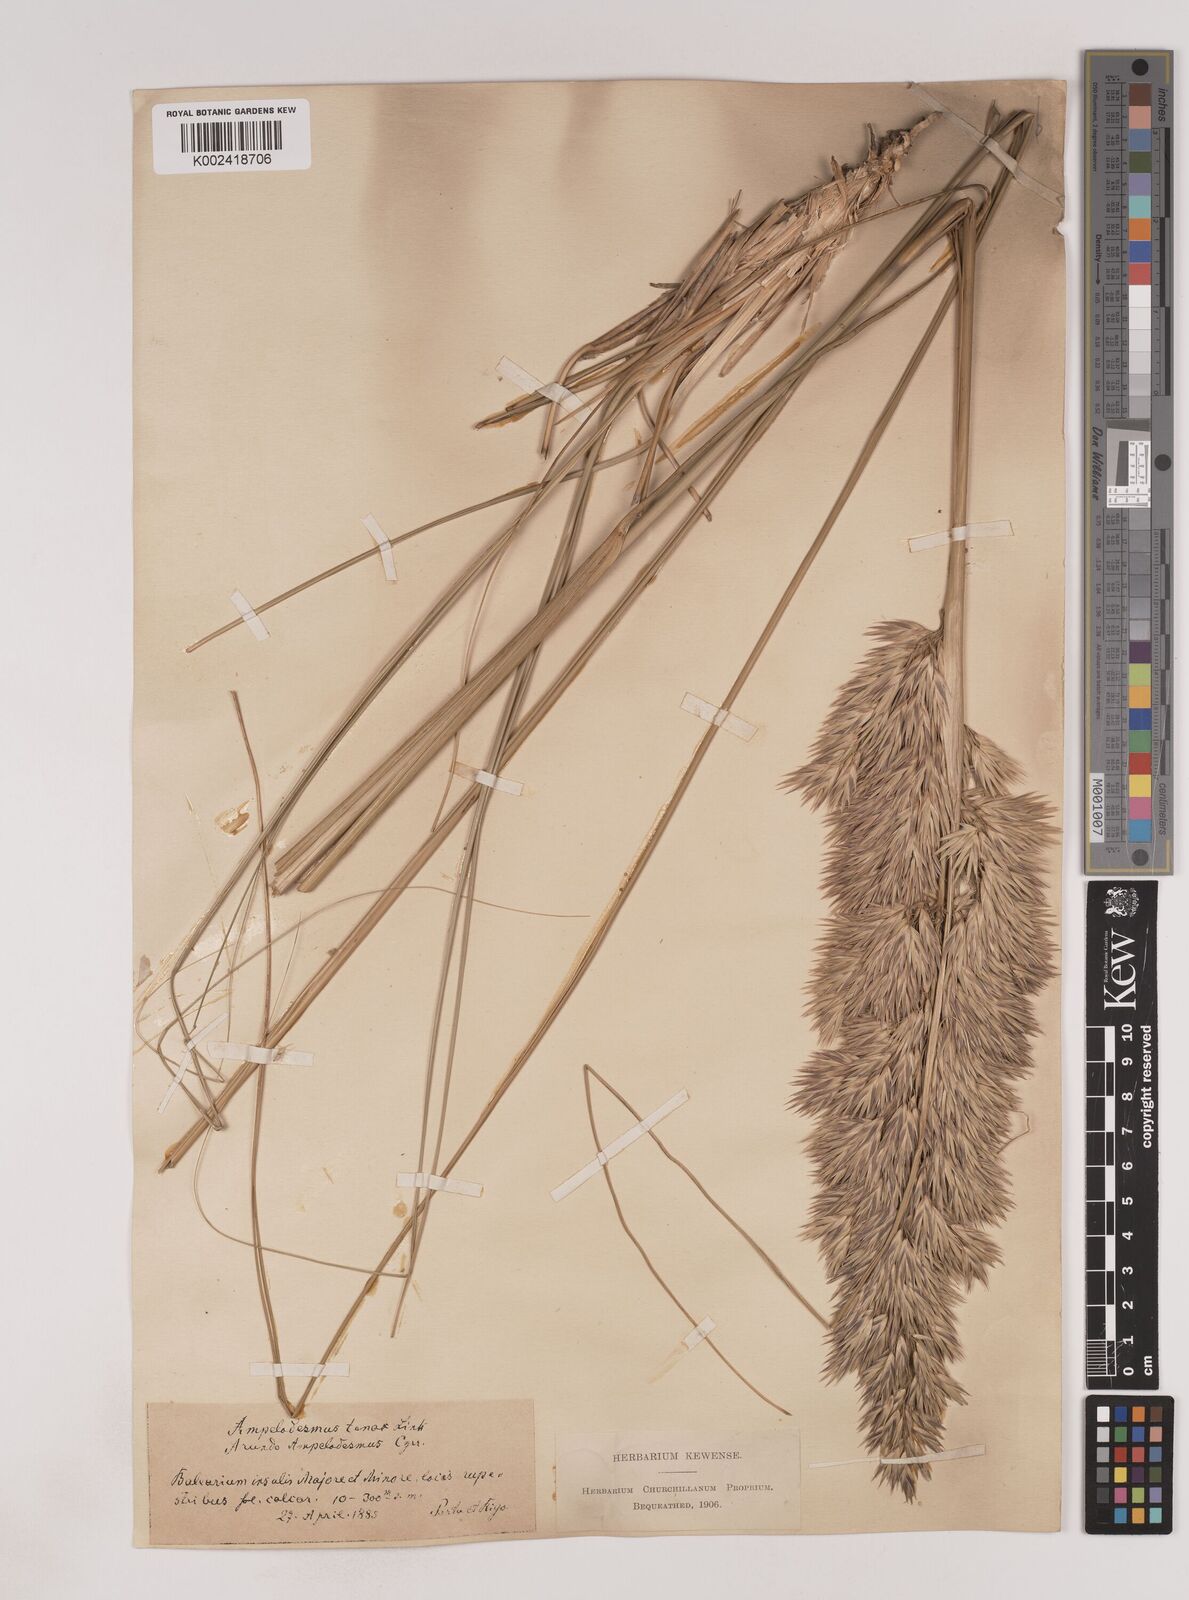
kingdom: Plantae
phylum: Tracheophyta
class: Liliopsida
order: Poales
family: Poaceae
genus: Ampelodesmos
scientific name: Ampelodesmos mauritanicus
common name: Mauritanian grass
